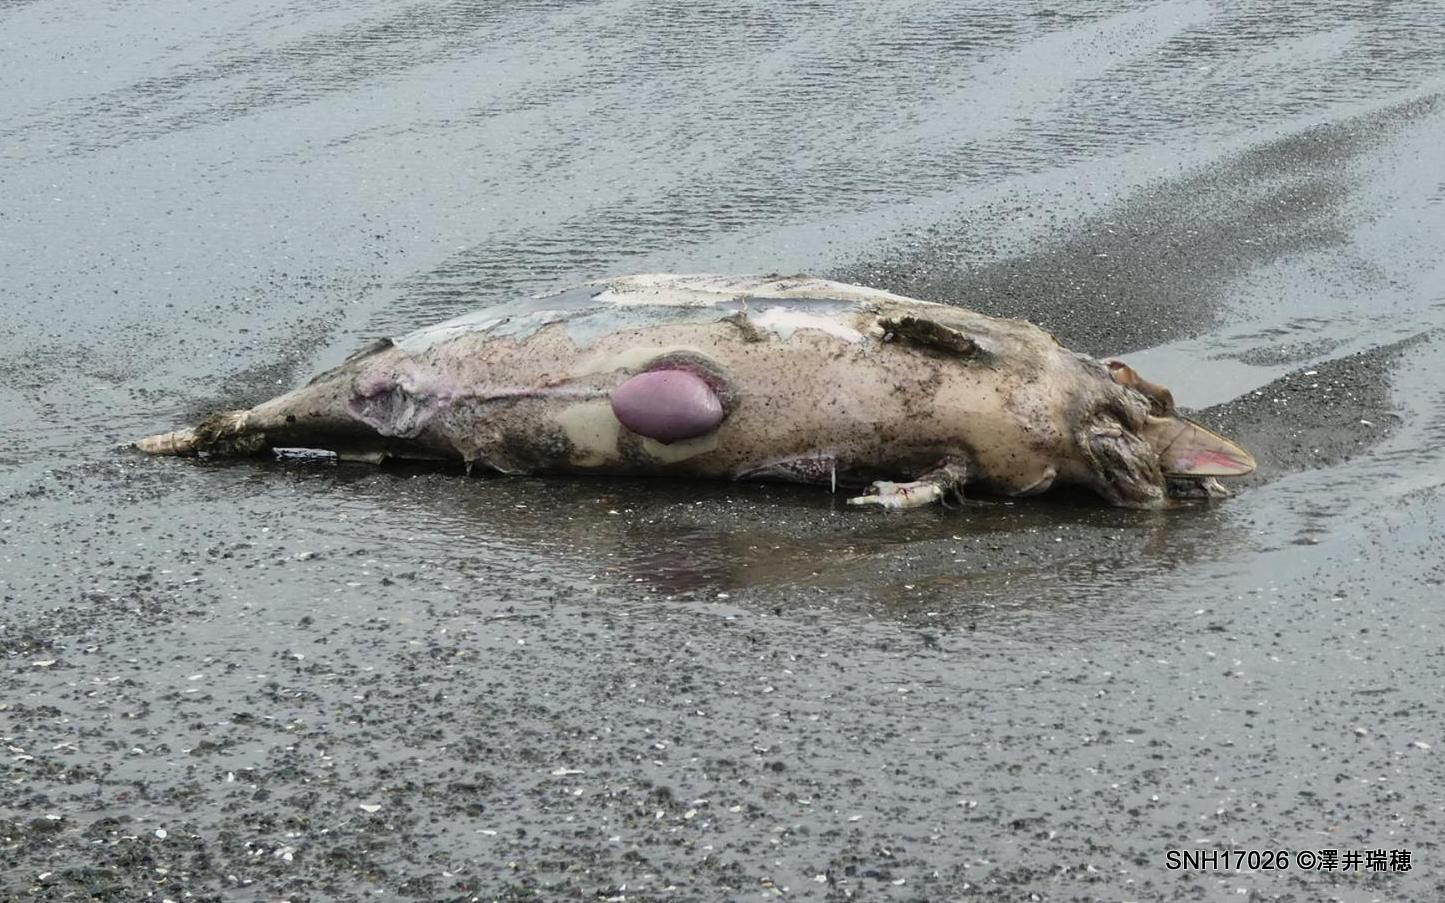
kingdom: Animalia
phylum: Chordata
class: Mammalia
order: Cetacea
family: Phocoenidae
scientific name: Phocoenidae
